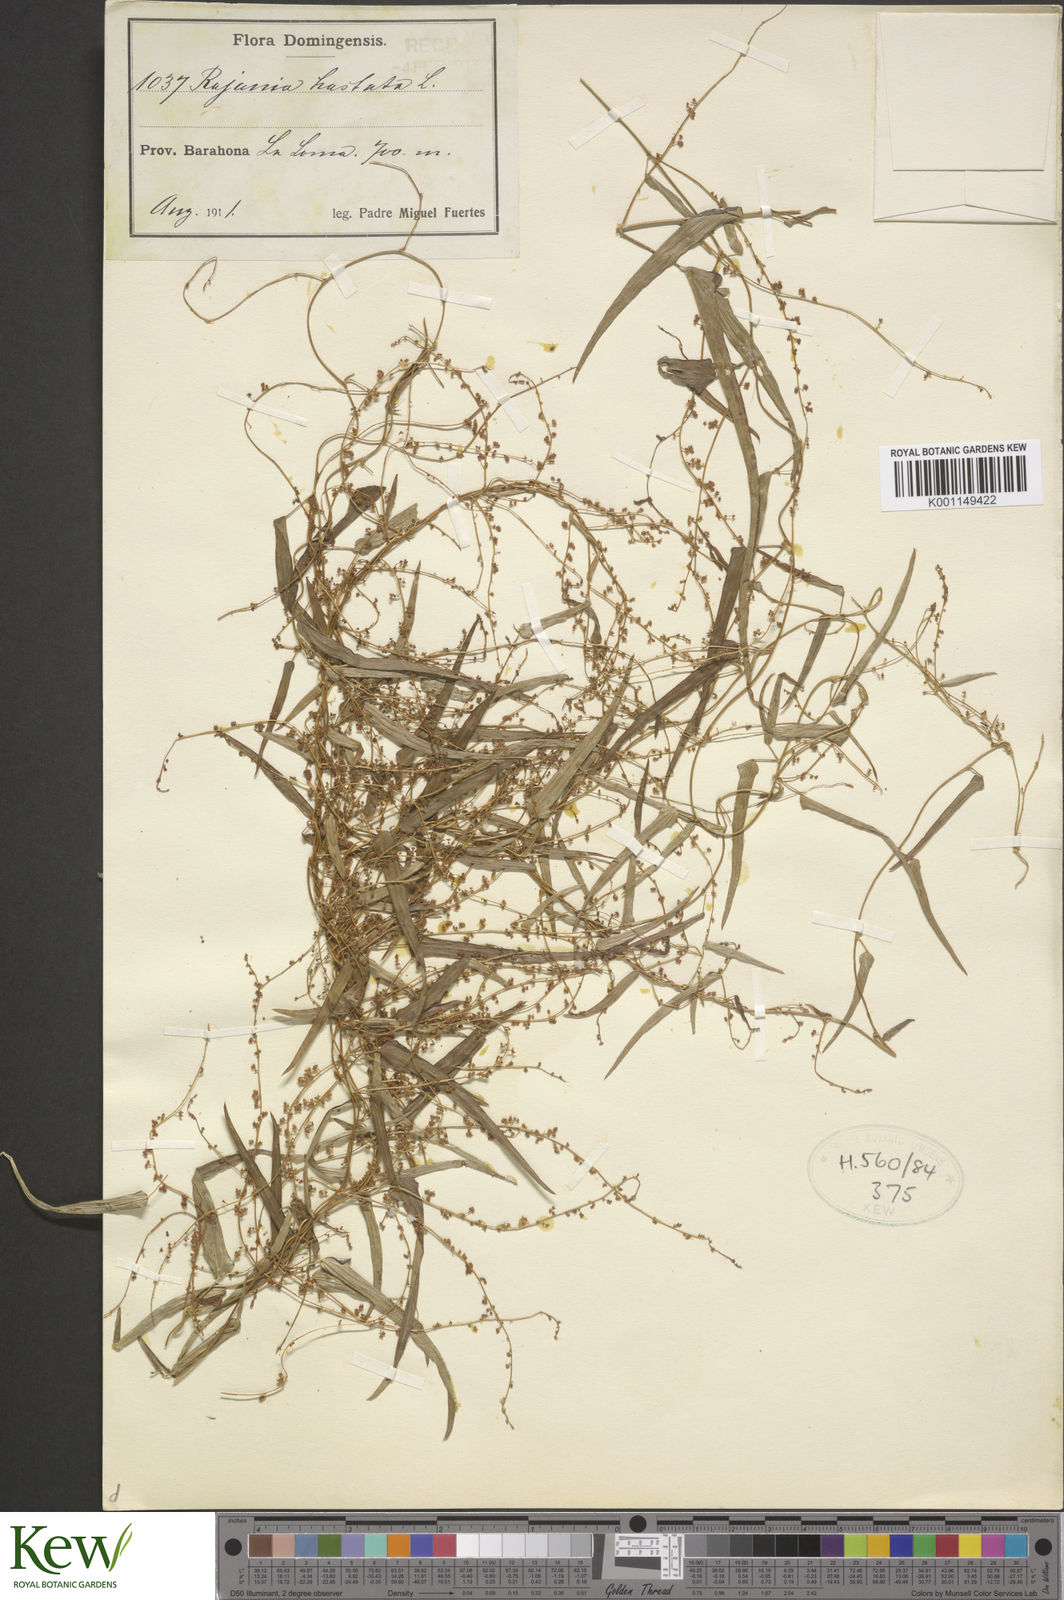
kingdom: Plantae
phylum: Tracheophyta
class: Liliopsida
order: Dioscoreales
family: Dioscoreaceae
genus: Dioscorea
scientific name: Dioscorea hastata
